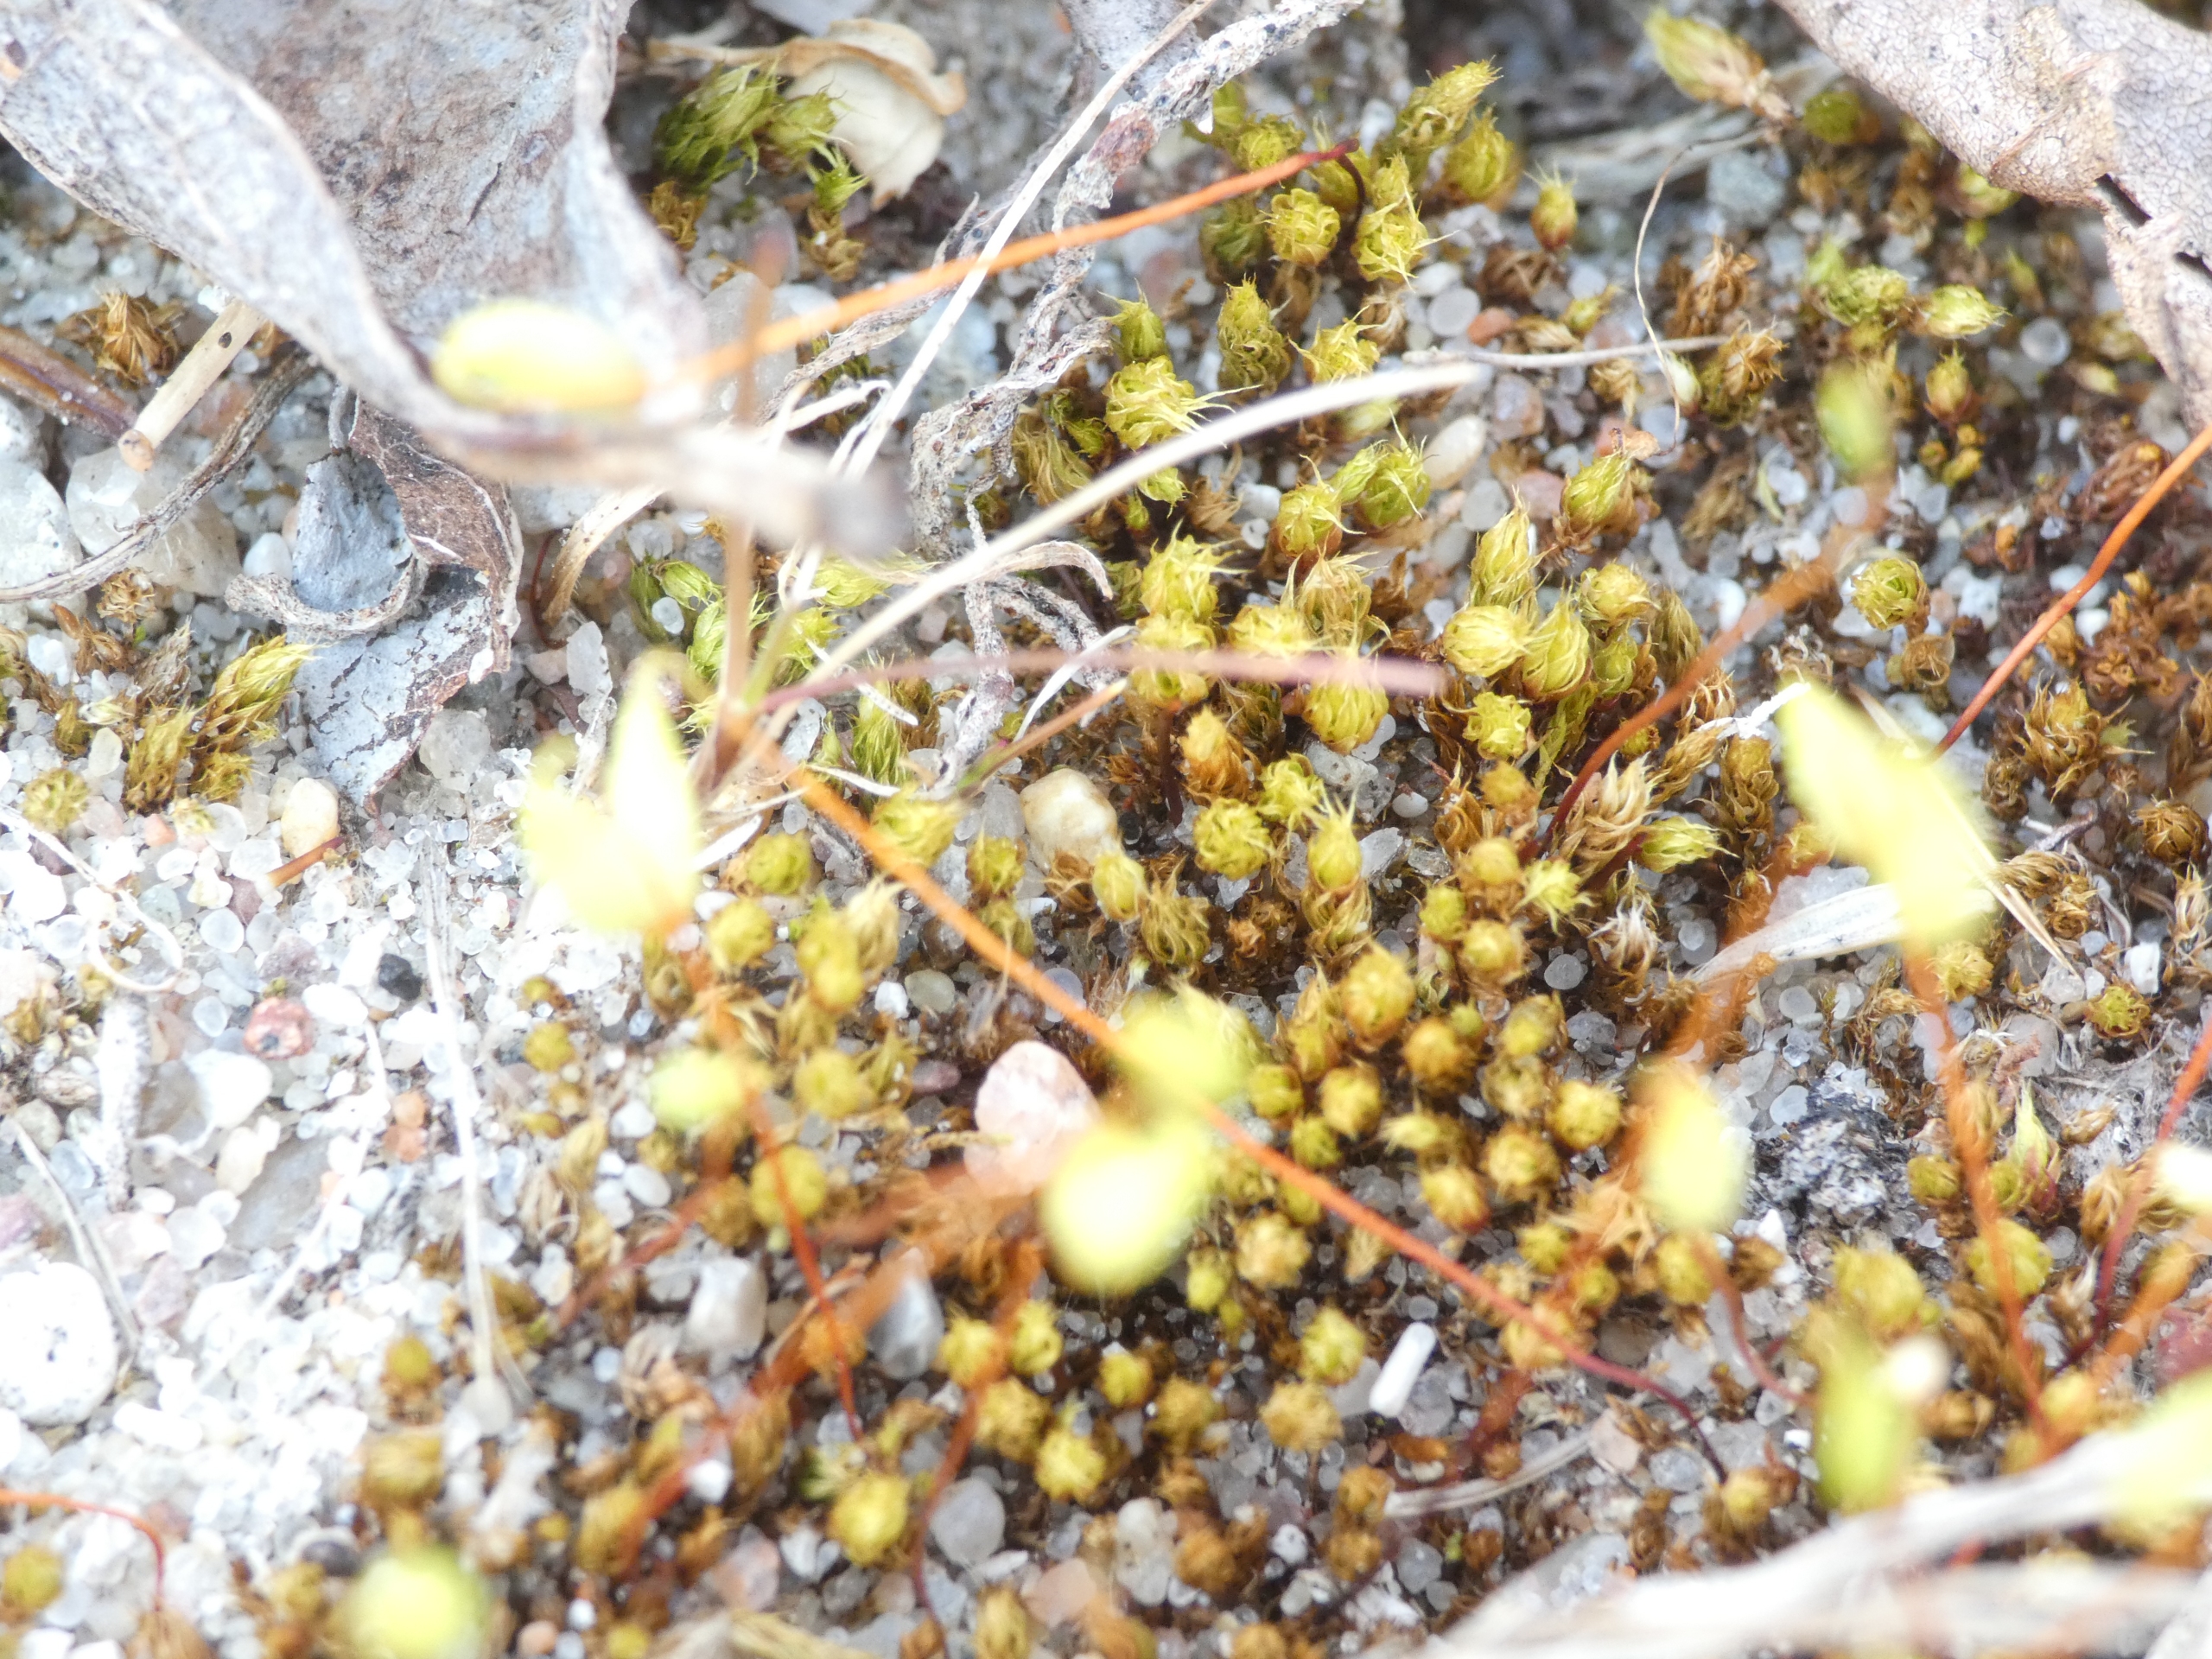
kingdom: Plantae
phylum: Bryophyta
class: Bryopsida
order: Bryales
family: Bryaceae
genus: Bryum
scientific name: Bryum
